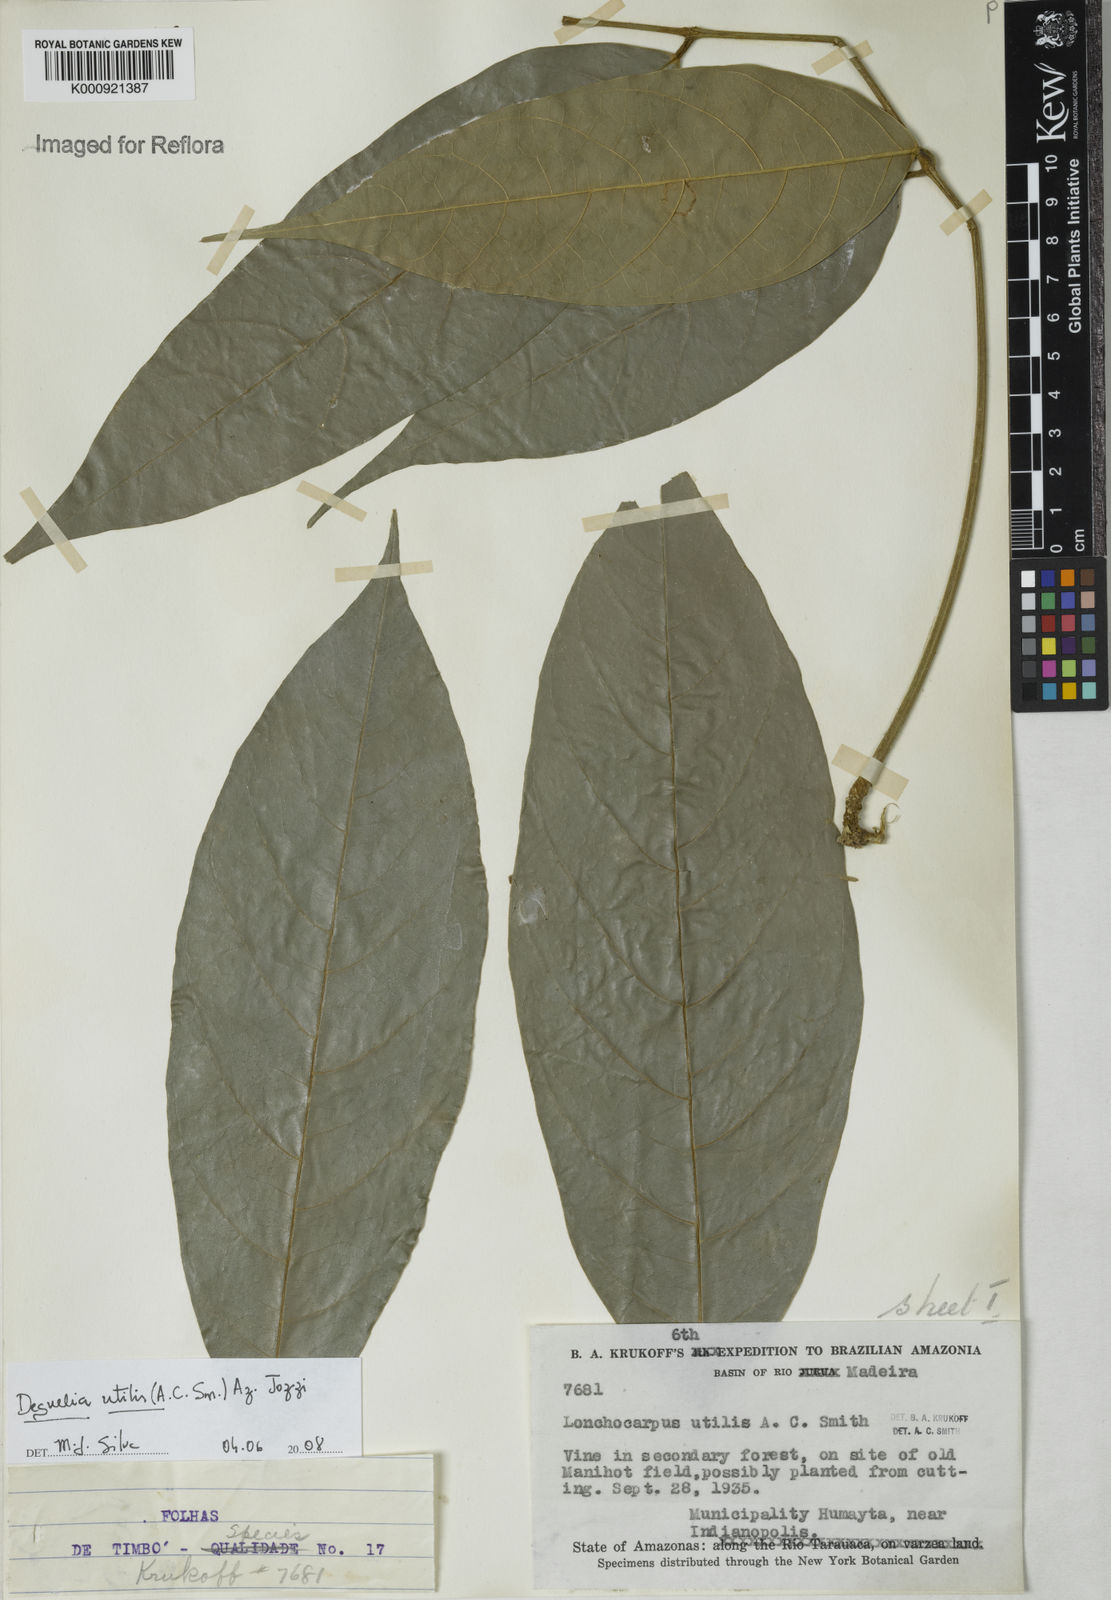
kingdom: Plantae
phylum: Tracheophyta
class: Magnoliopsida
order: Fabales
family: Fabaceae
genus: Deguelia
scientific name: Deguelia utilis
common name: Timbo
